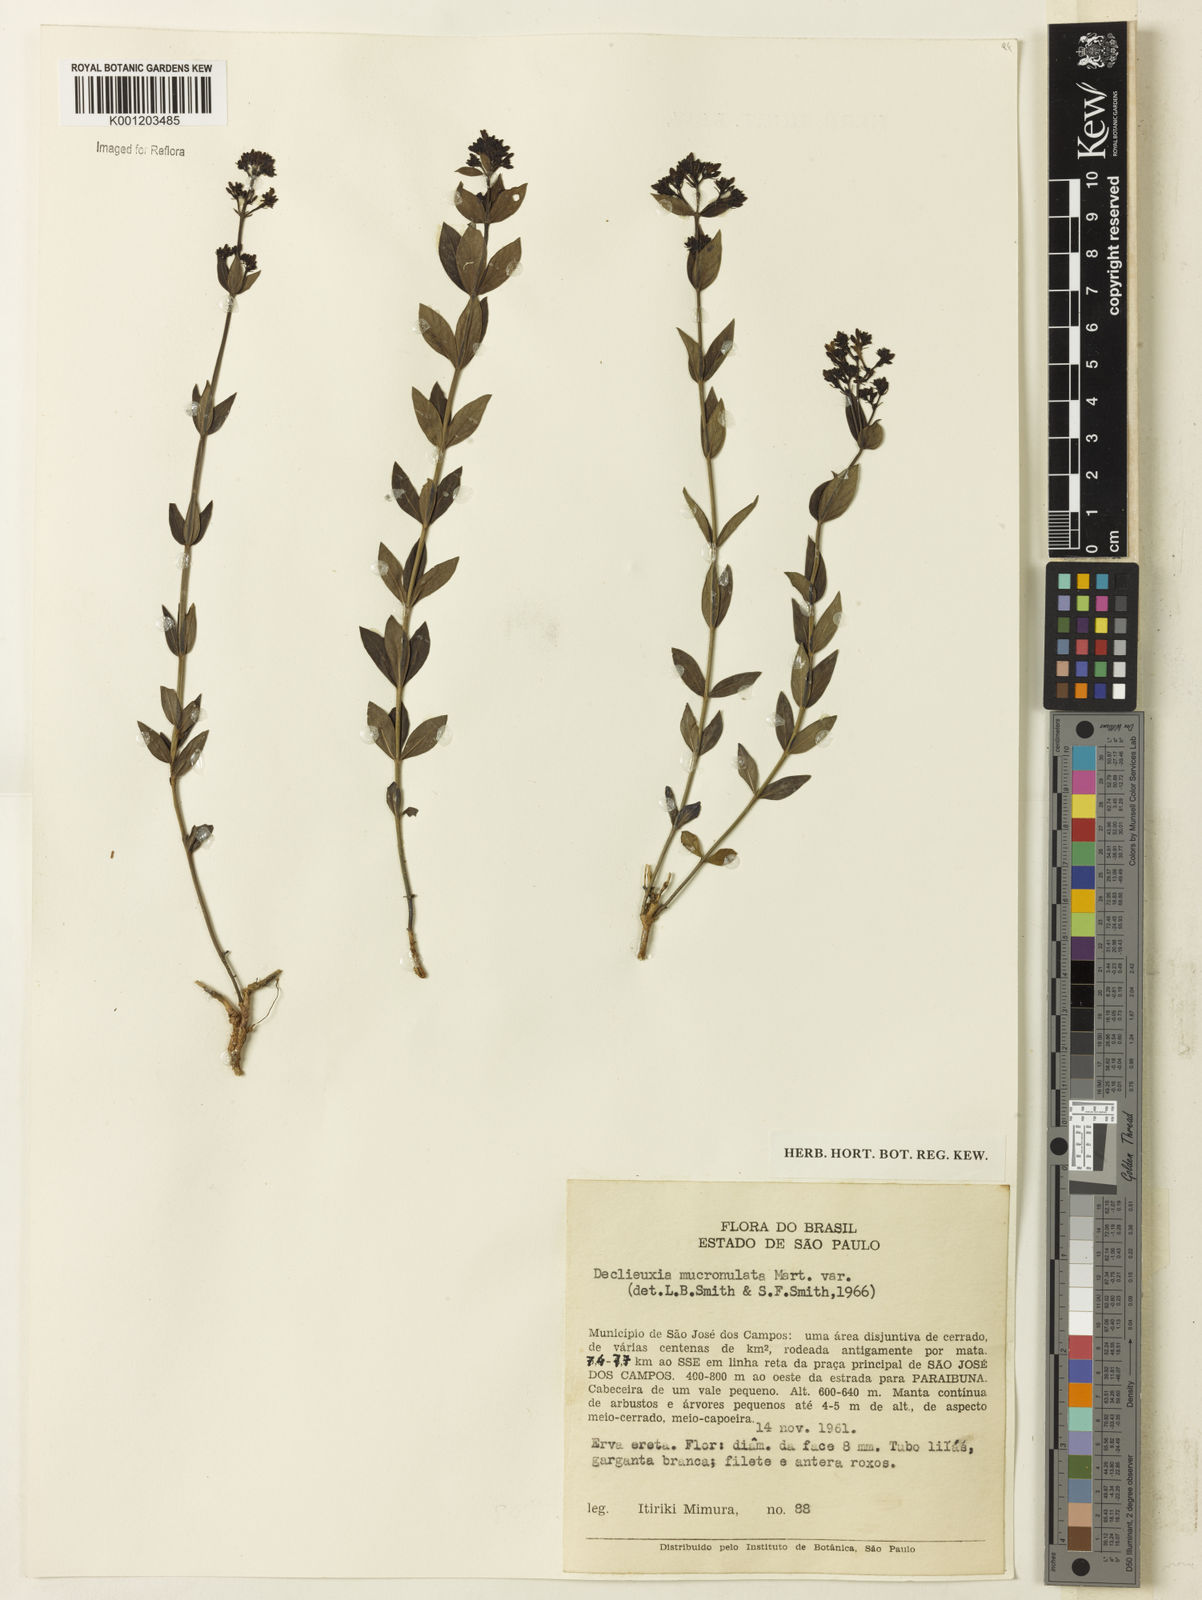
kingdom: Plantae
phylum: Tracheophyta
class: Magnoliopsida
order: Gentianales
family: Rubiaceae
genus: Declieuxia
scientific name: Declieuxia fruticosa
